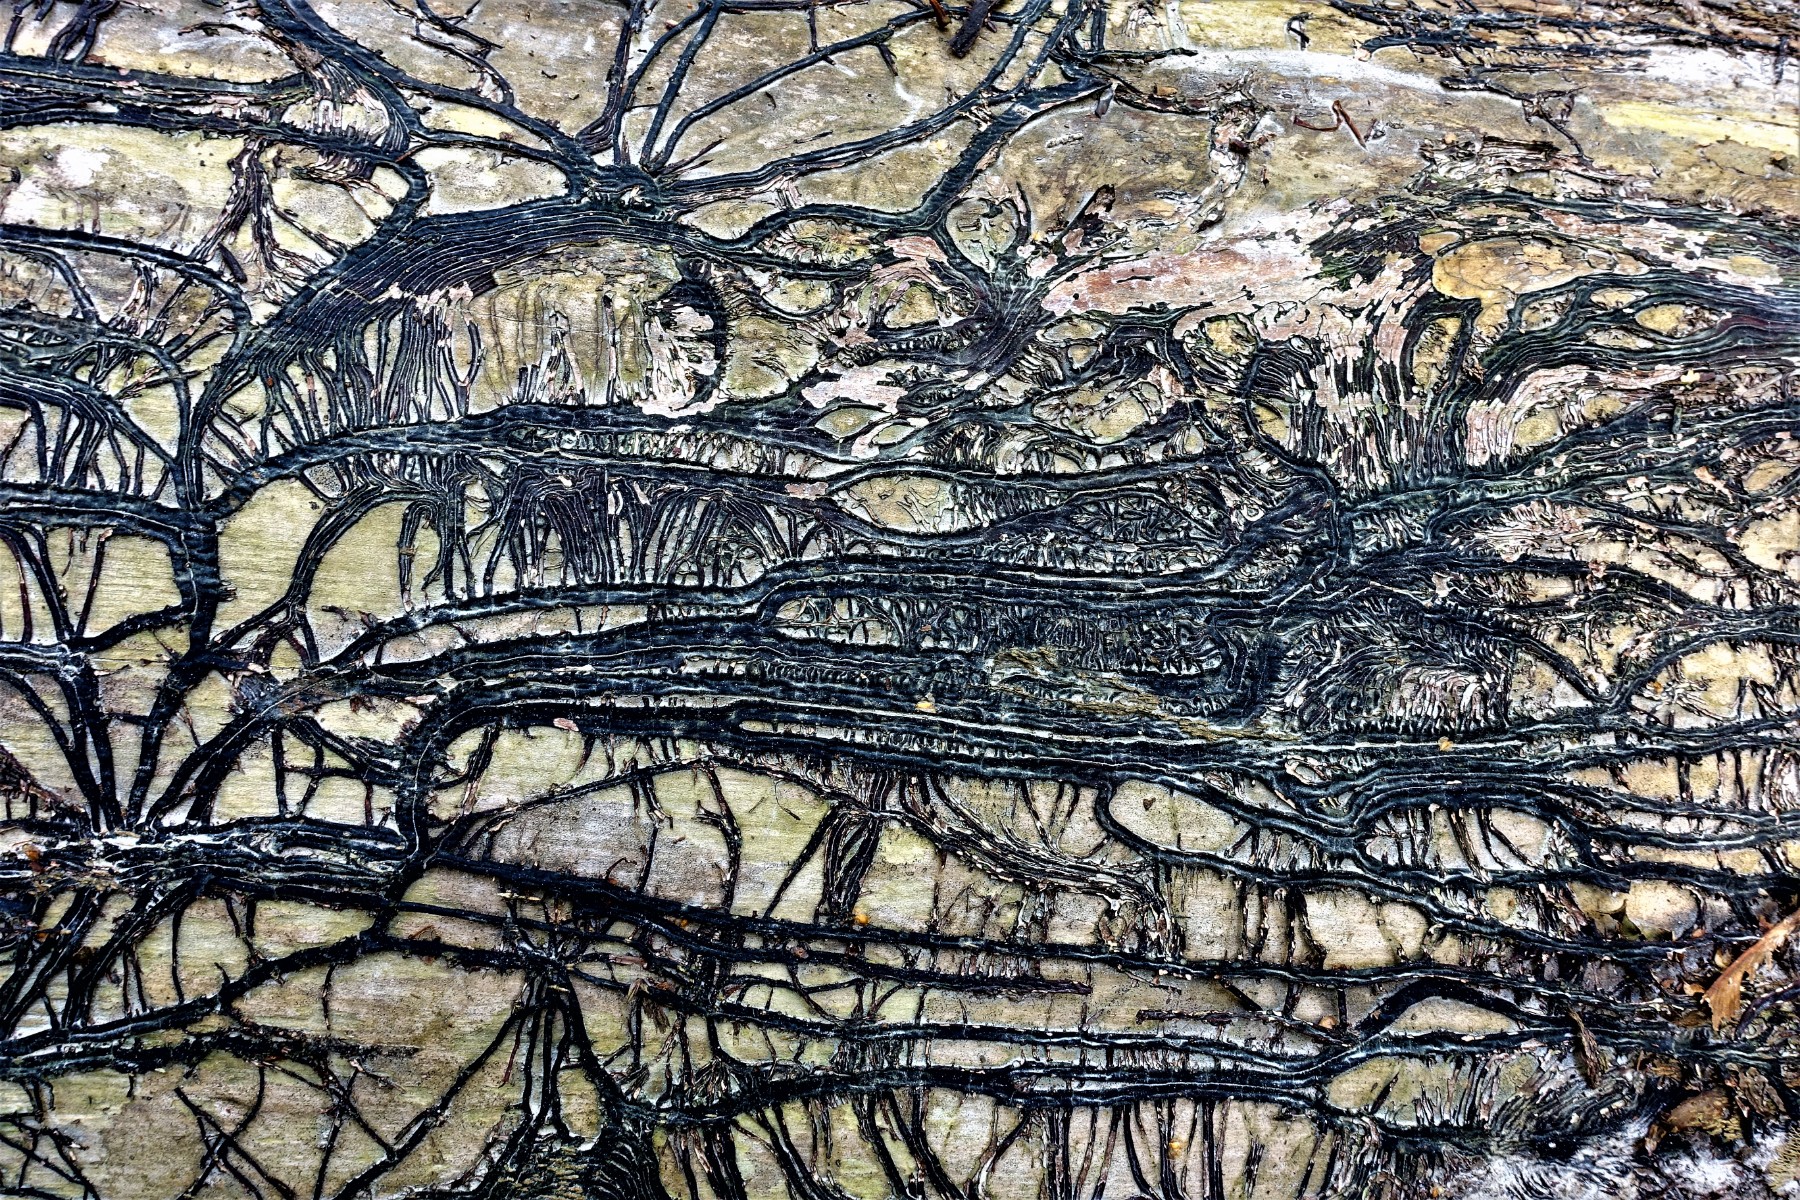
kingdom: Fungi
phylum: Basidiomycota
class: Agaricomycetes
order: Agaricales
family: Physalacriaceae
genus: Armillaria
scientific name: Armillaria lutea
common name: køllestokket honningsvamp
